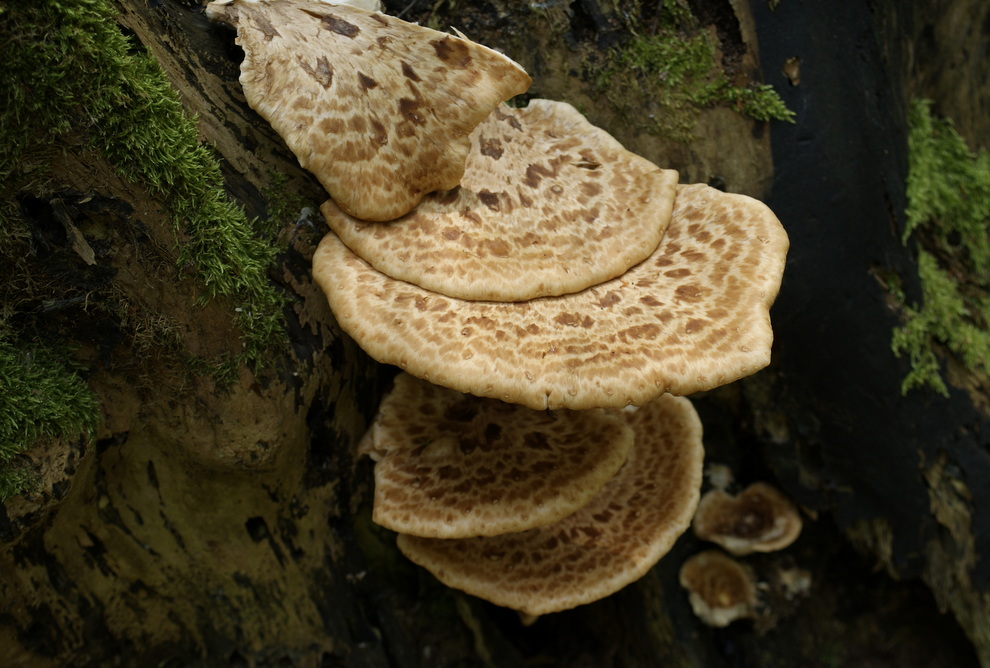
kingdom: Fungi
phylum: Basidiomycota
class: Agaricomycetes
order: Polyporales
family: Polyporaceae
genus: Cerioporus
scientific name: Cerioporus squamosus
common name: skællet stilkporesvamp
